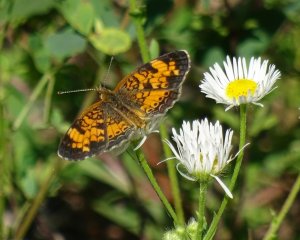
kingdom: Animalia
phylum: Arthropoda
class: Insecta
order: Lepidoptera
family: Nymphalidae
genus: Phyciodes
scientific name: Phyciodes tharos
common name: Northern Crescent
